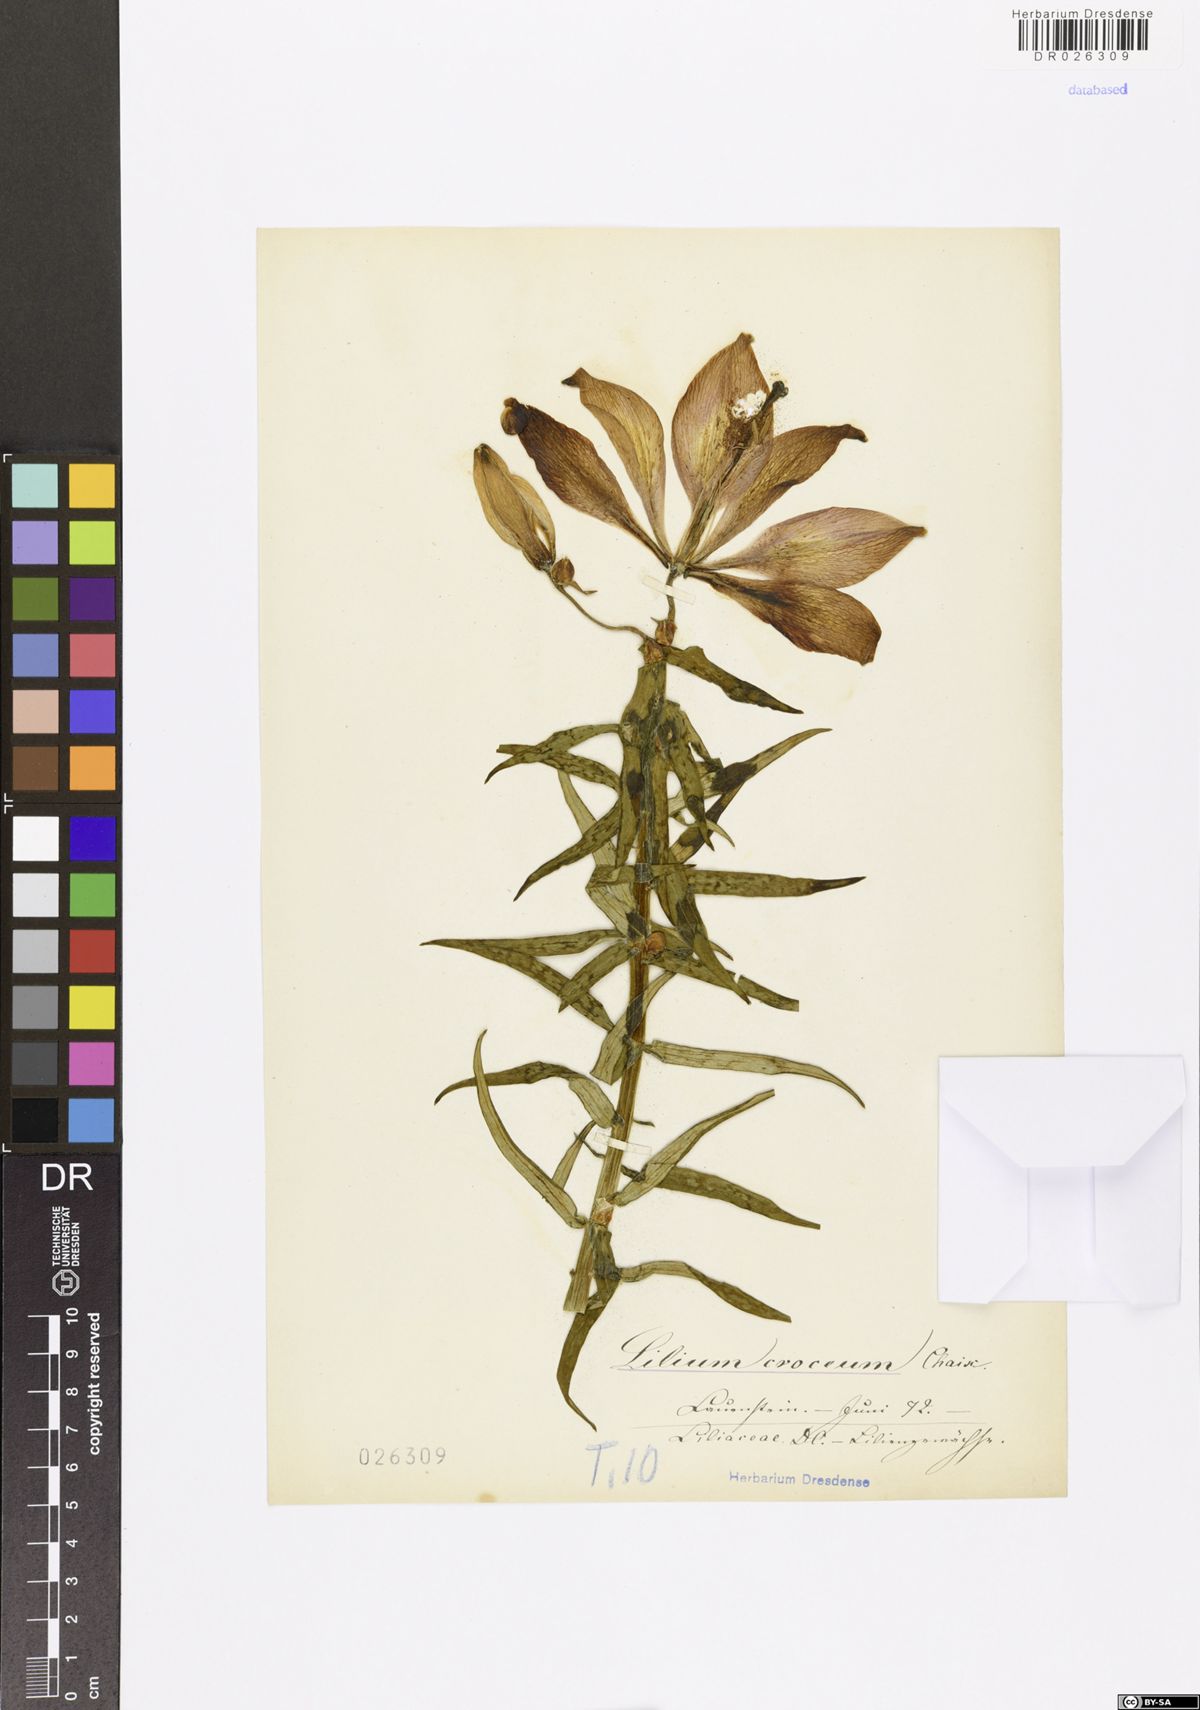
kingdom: Plantae
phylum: Tracheophyta
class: Liliopsida
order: Liliales
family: Liliaceae
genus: Lilium
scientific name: Lilium bulbiferum
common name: Orange lily
